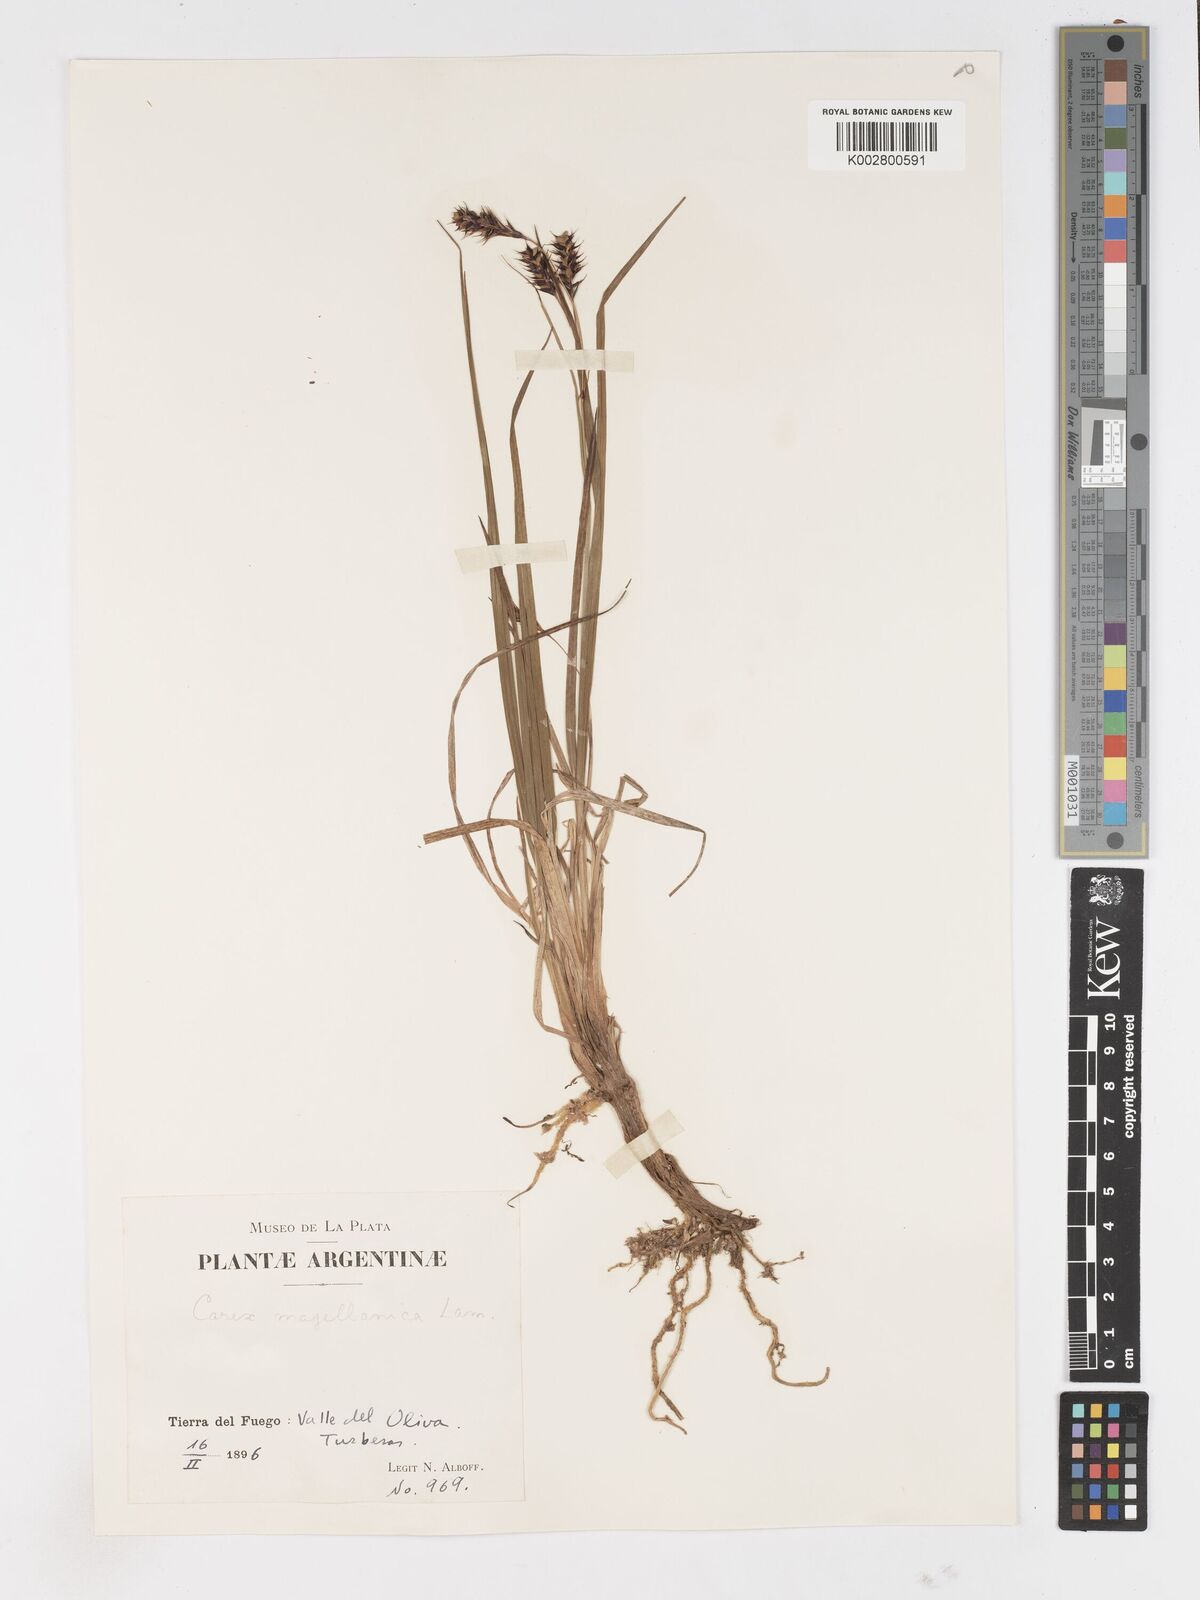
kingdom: Plantae
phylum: Tracheophyta
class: Liliopsida
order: Poales
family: Cyperaceae
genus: Carex
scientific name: Carex magellanica
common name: Bog sedge
